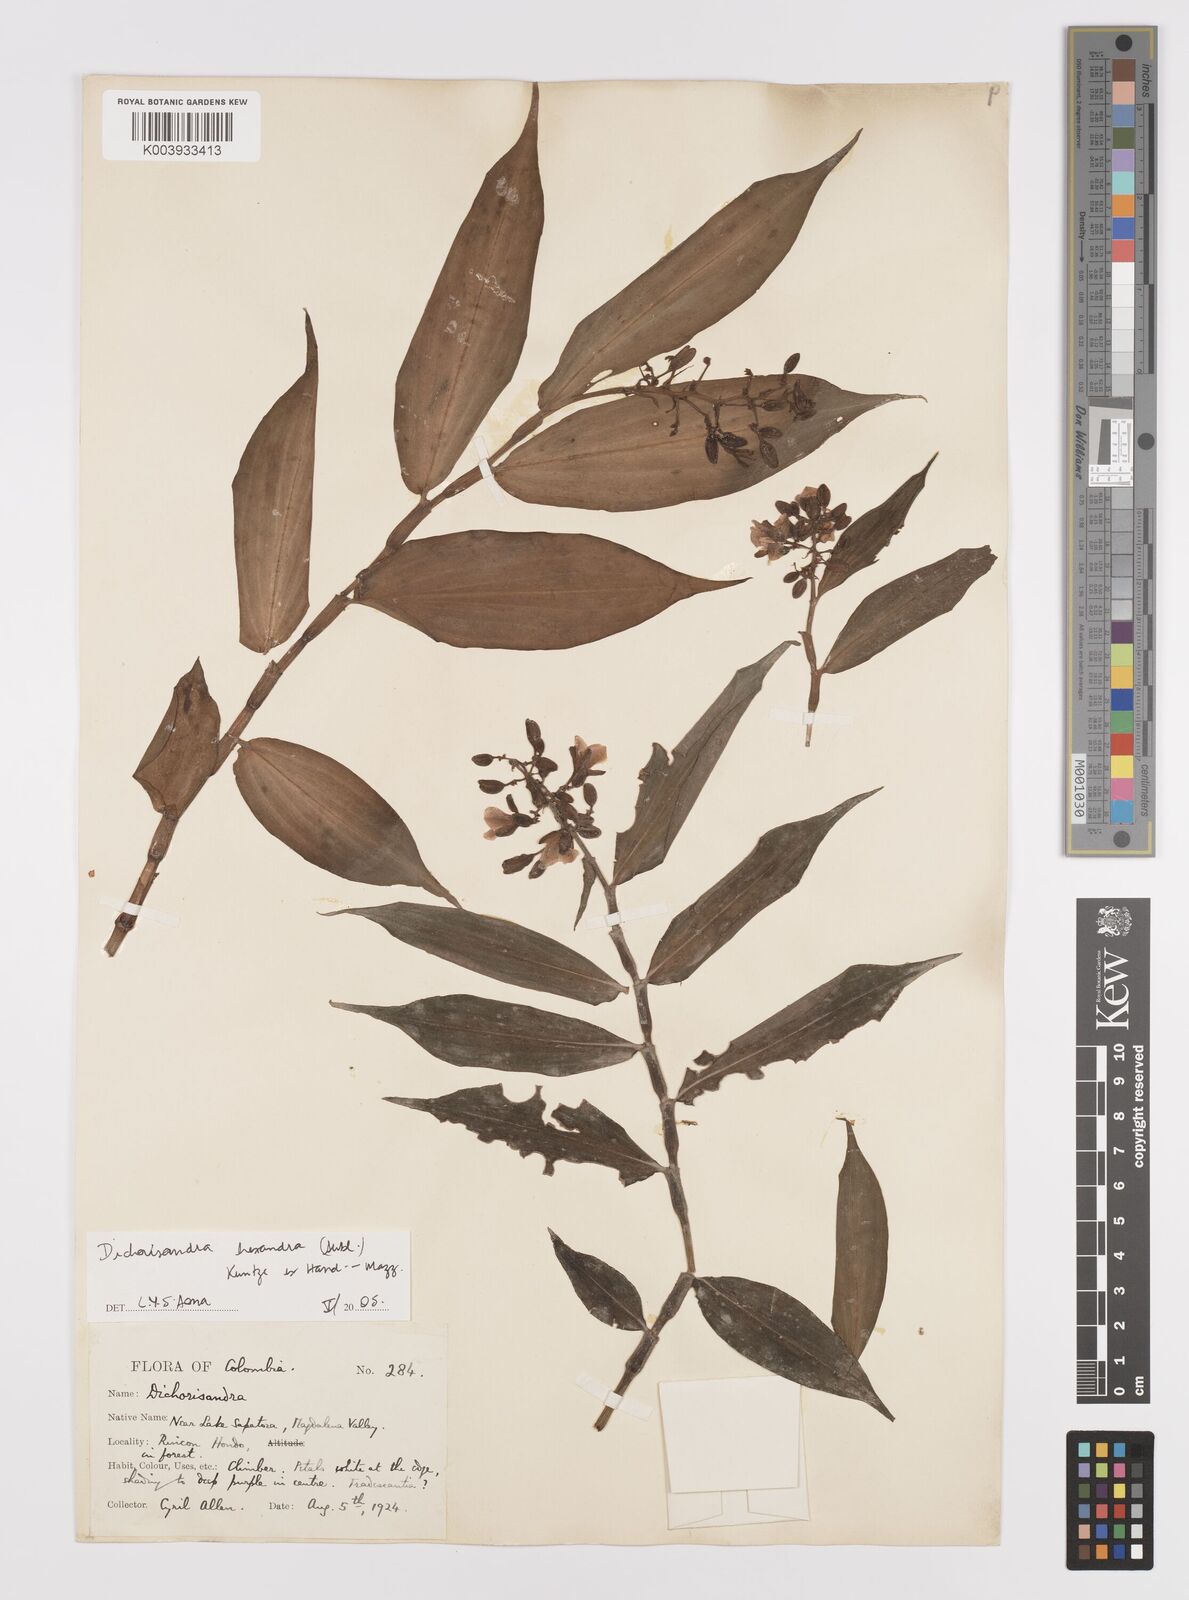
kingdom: Plantae
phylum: Tracheophyta
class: Liliopsida
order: Commelinales
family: Commelinaceae
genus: Dichorisandra
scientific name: Dichorisandra hexandra
